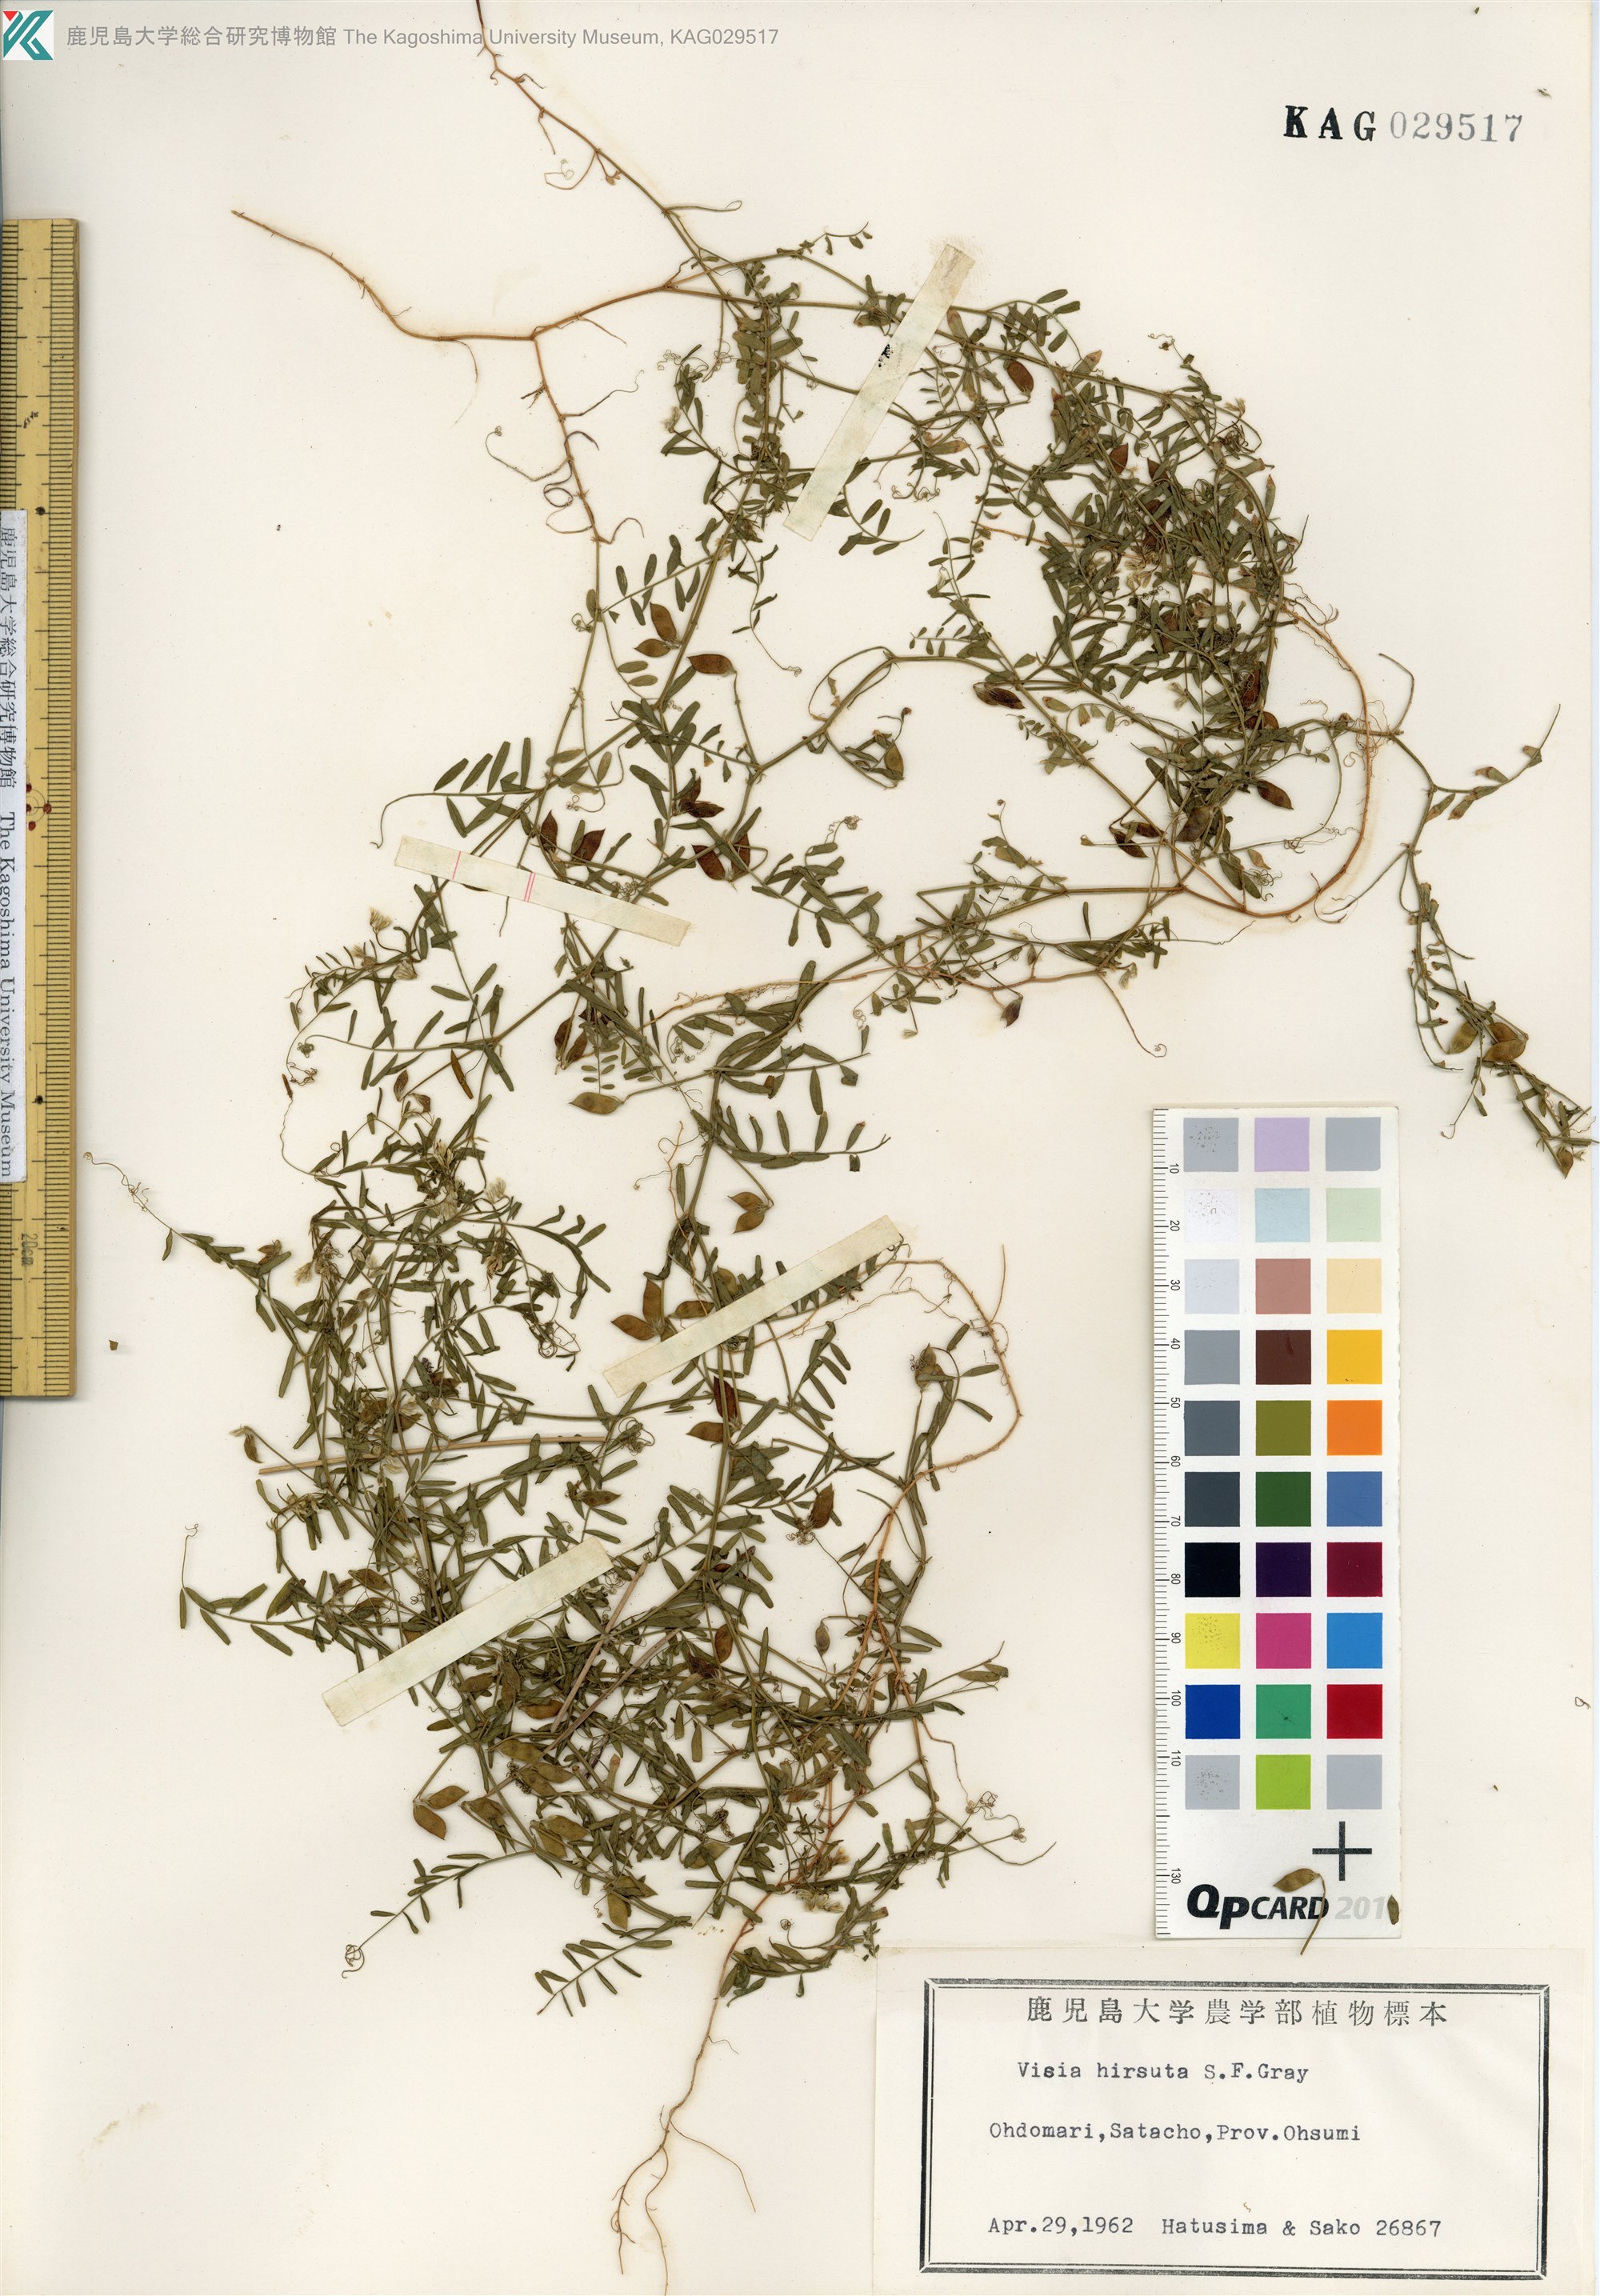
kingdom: Plantae
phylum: Tracheophyta
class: Magnoliopsida
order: Fabales
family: Fabaceae
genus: Vicia
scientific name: Vicia hirsuta
